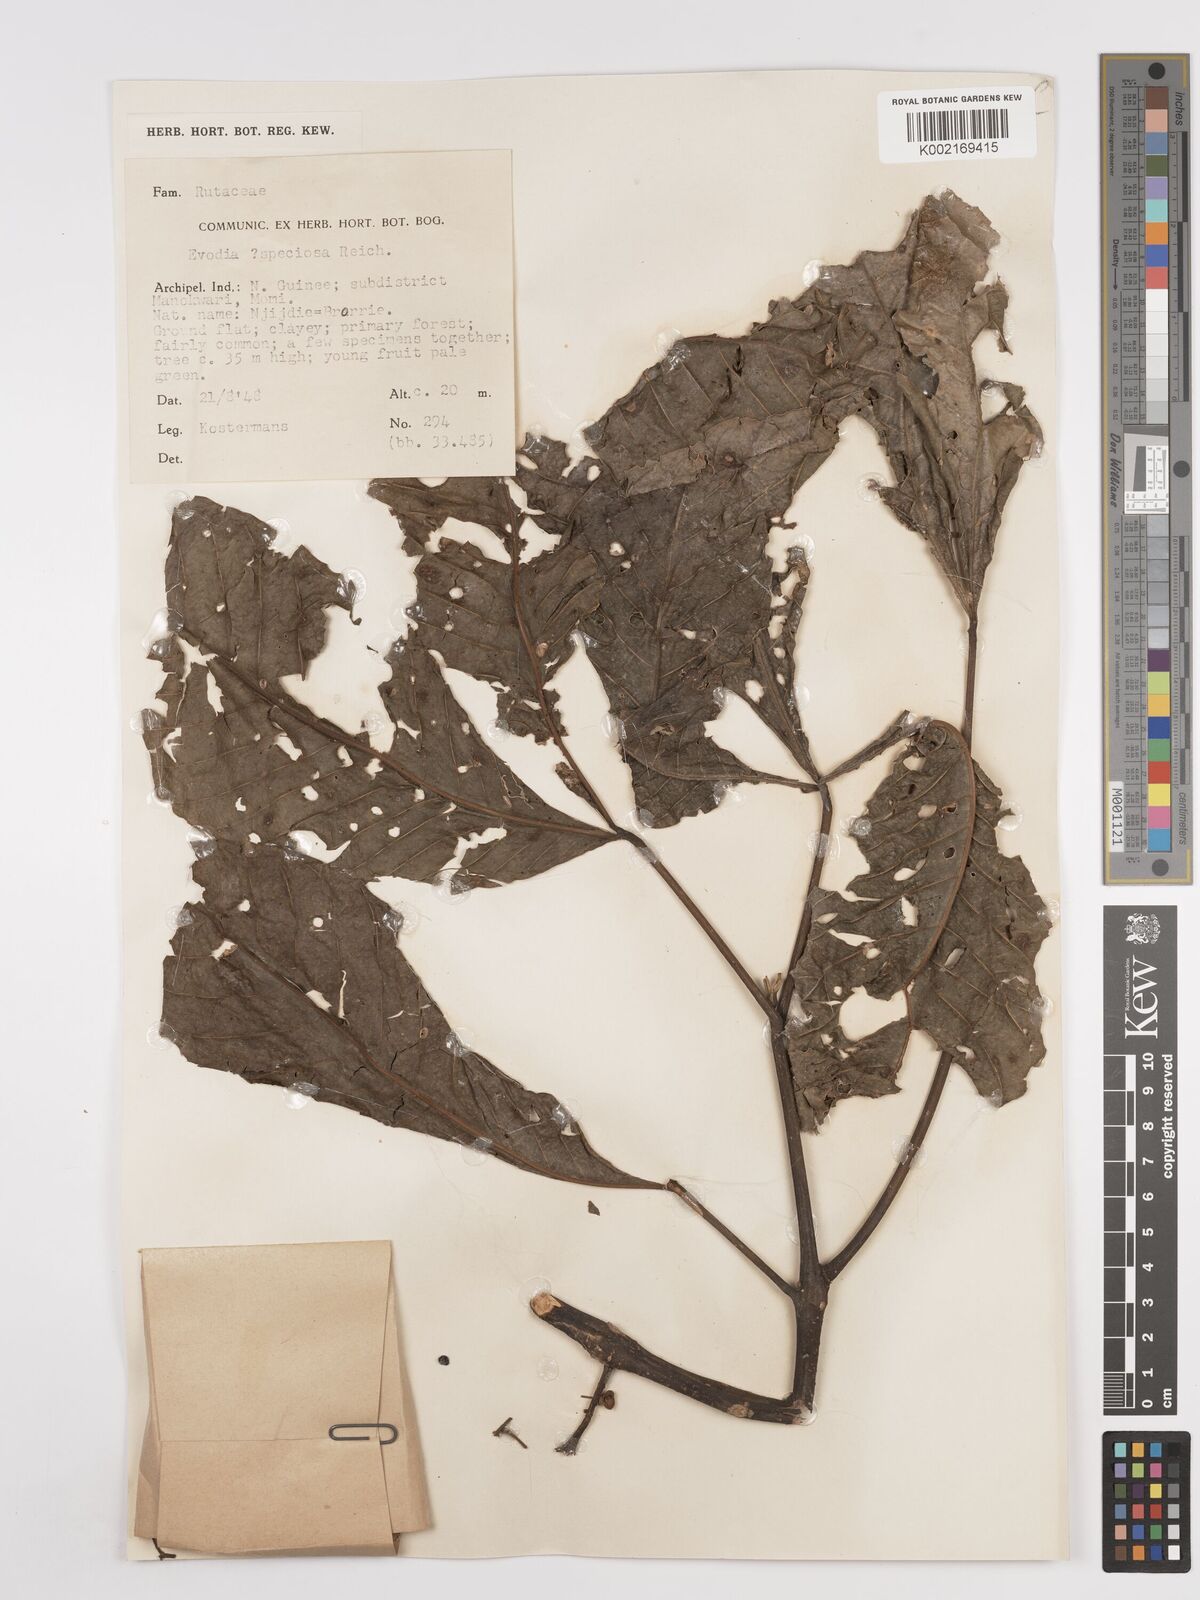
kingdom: Plantae
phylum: Tracheophyta
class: Magnoliopsida
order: Sapindales
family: Rutaceae
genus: Melicope
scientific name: Melicope bonwickii
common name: Yellow corkwood
